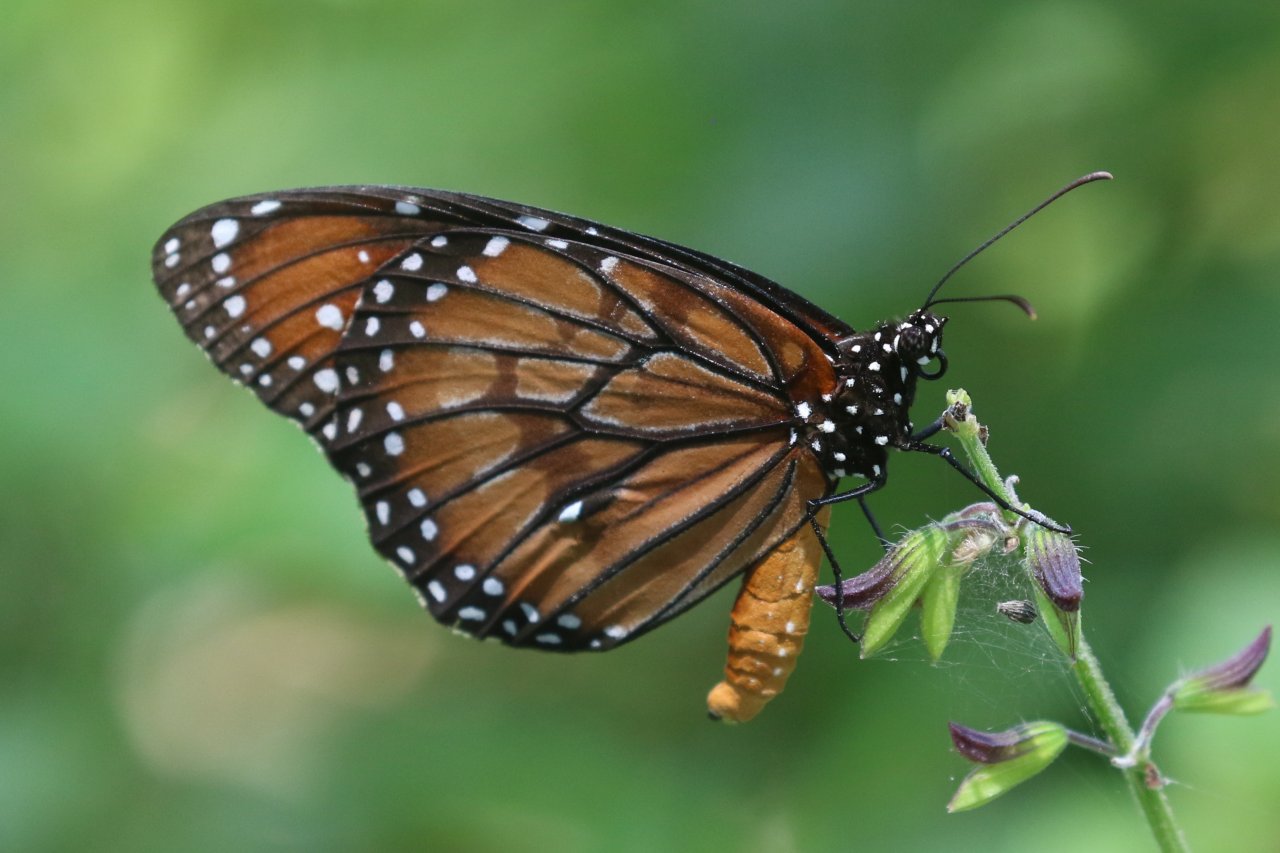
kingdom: Animalia
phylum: Arthropoda
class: Insecta
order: Lepidoptera
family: Nymphalidae
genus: Danaus
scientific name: Danaus eresimus
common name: Soldier
